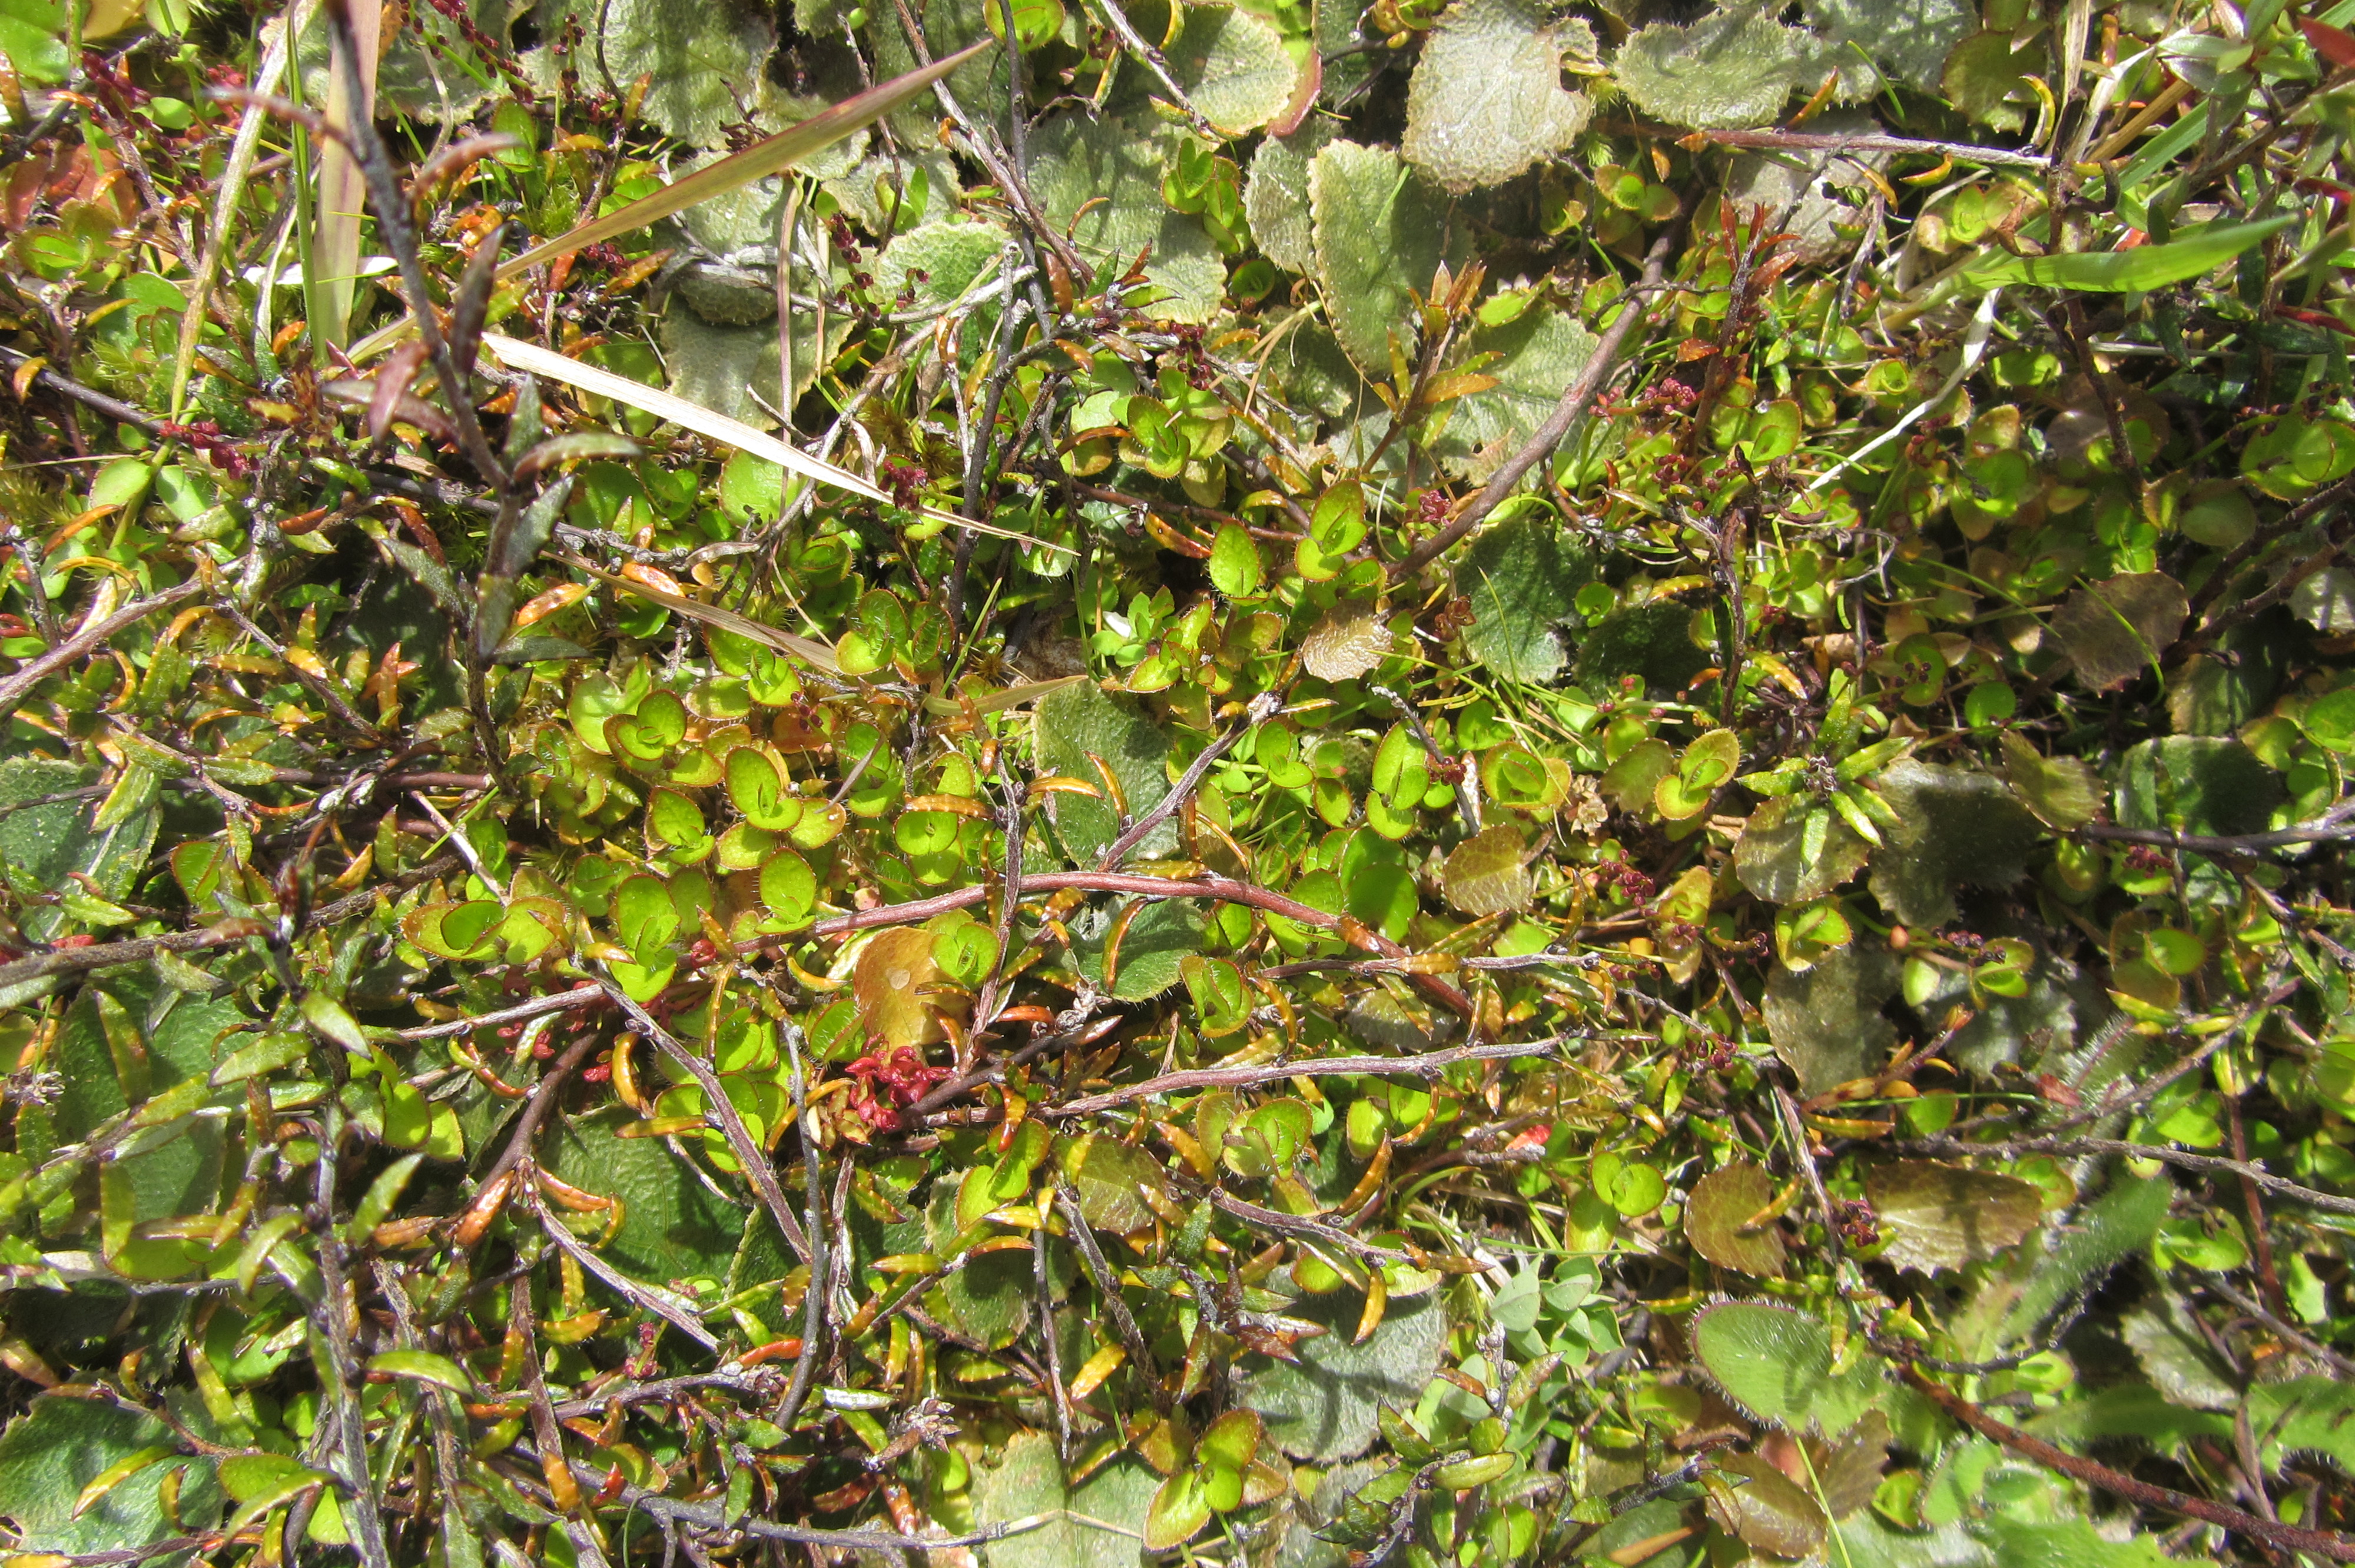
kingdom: Plantae
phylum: Tracheophyta
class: Magnoliopsida
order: Gunnerales
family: Gunneraceae
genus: Gunnera
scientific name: Gunnera prorepens
